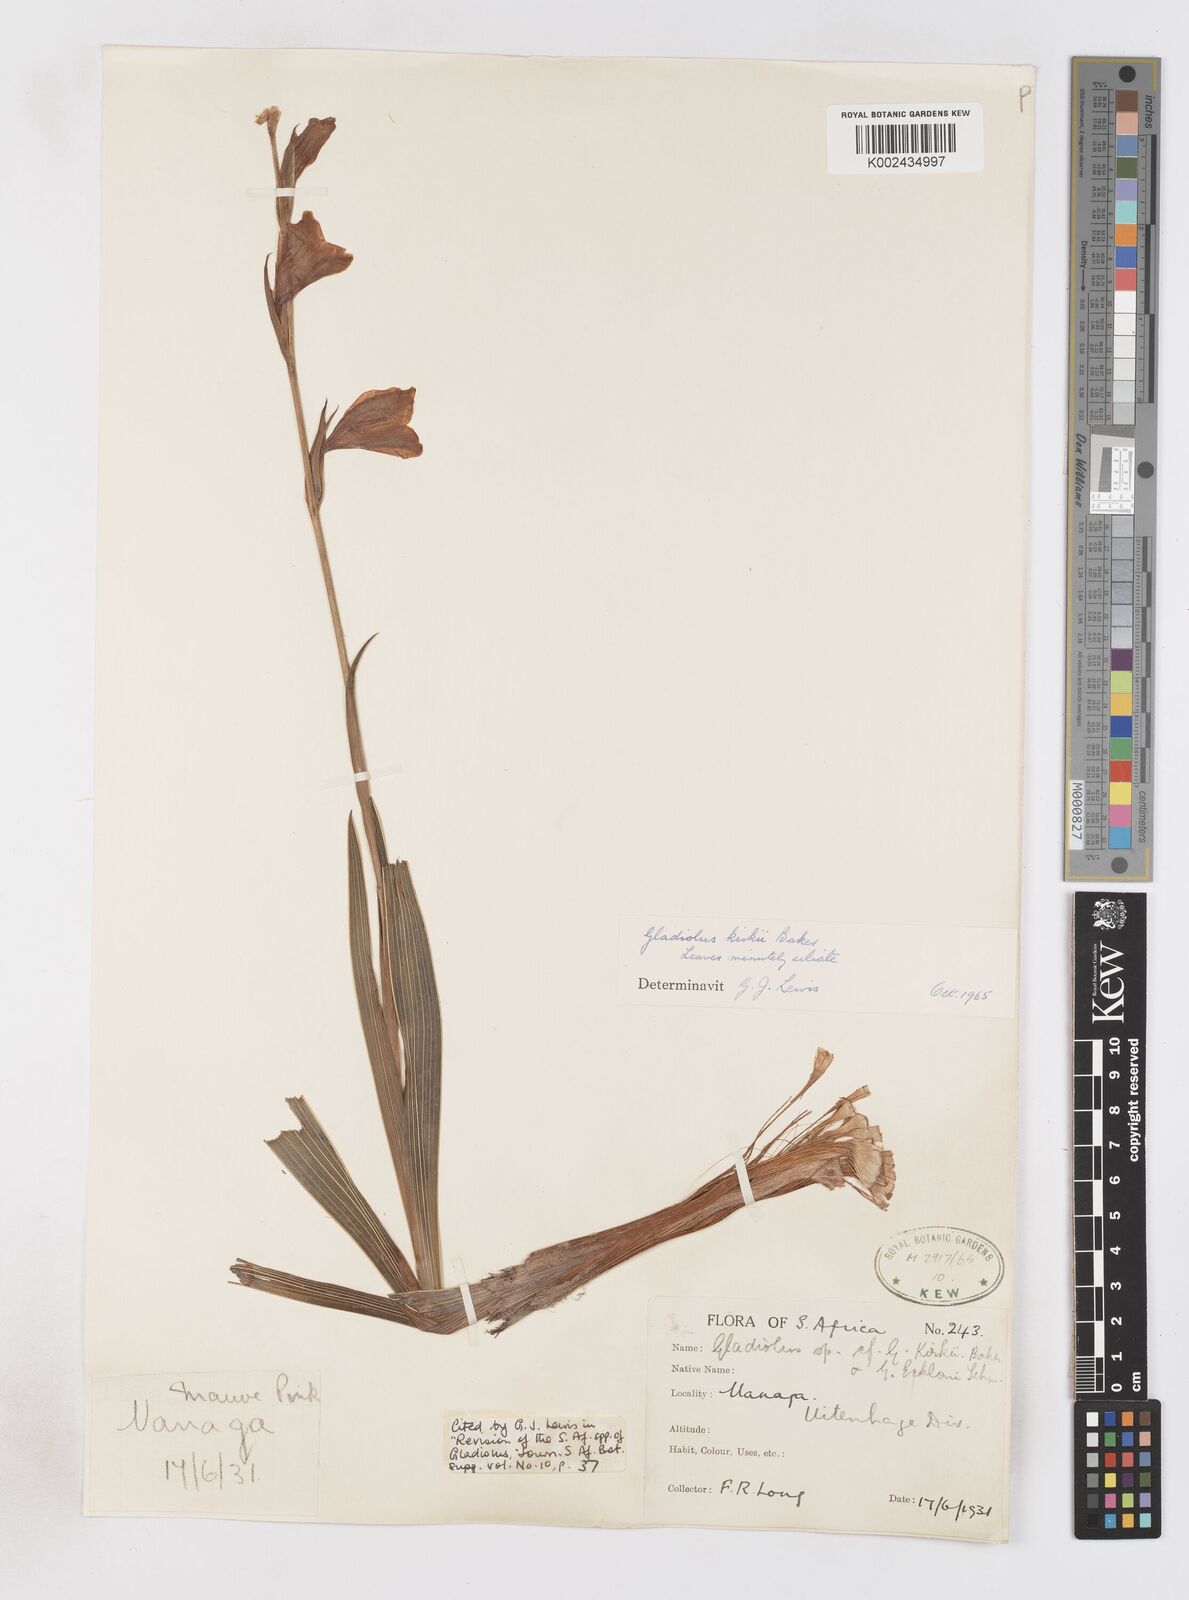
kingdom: Plantae
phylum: Tracheophyta
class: Liliopsida
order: Asparagales
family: Iridaceae
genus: Gladiolus
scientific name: Gladiolus ochroleucus
